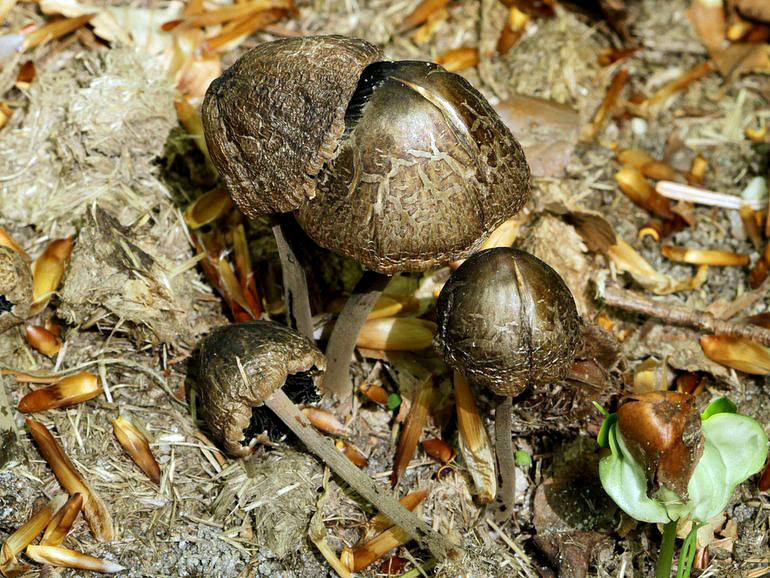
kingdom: Fungi
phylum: Basidiomycota
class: Agaricomycetes
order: Agaricales
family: Bolbitiaceae
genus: Panaeolus
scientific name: Panaeolus papilionaceus
